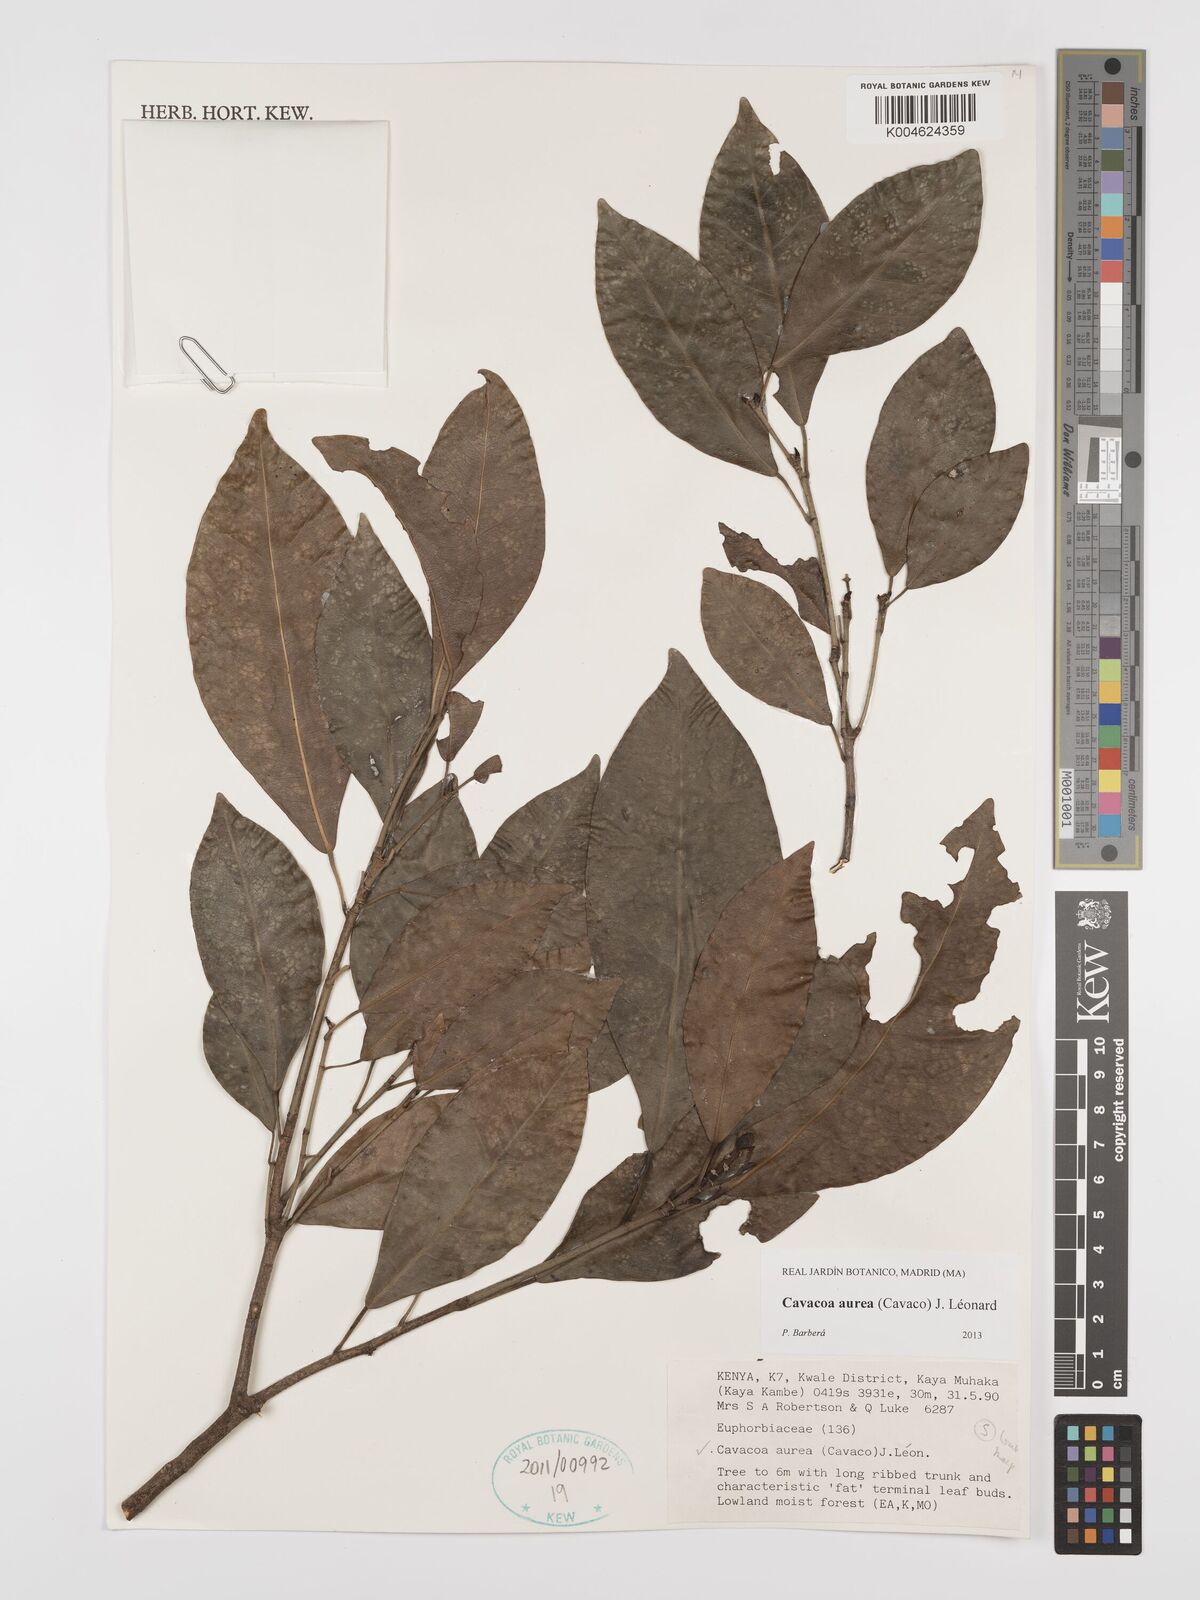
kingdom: Plantae
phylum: Tracheophyta
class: Magnoliopsida
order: Malpighiales
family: Euphorbiaceae
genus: Cavacoa
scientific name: Cavacoa aurea
